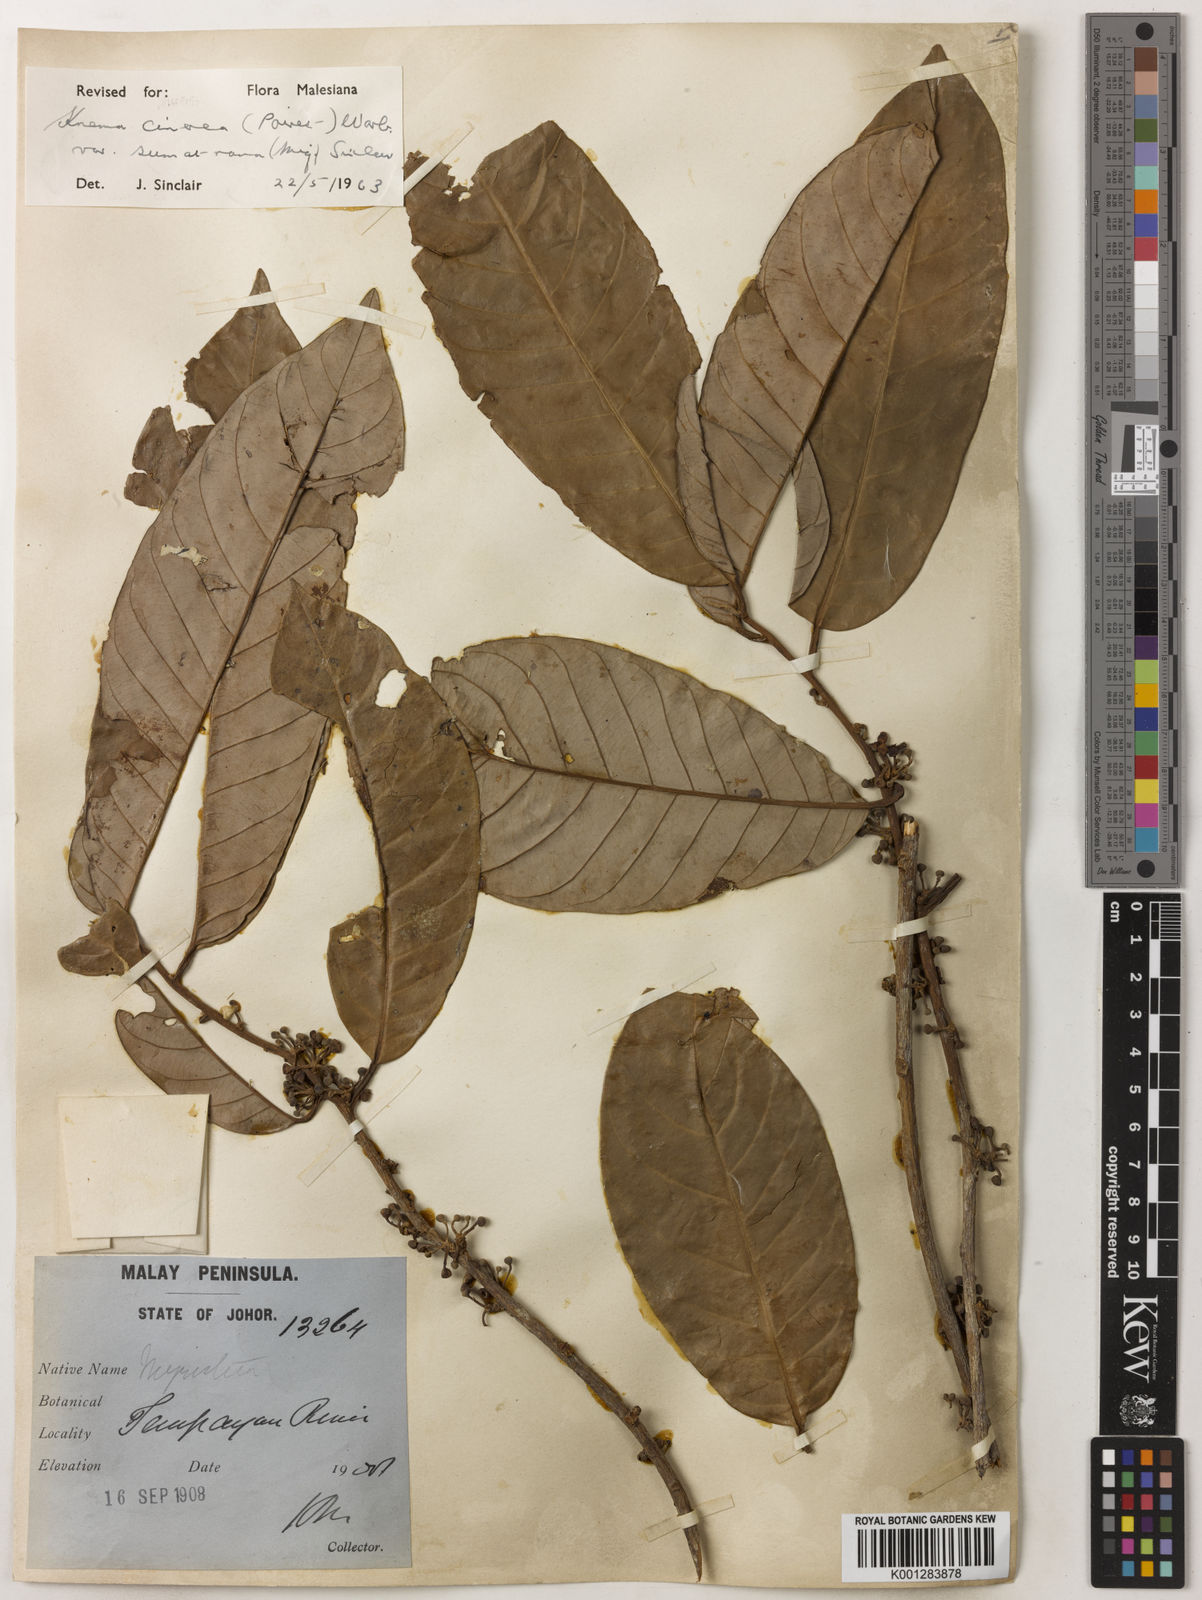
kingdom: Plantae
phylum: Tracheophyta
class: Magnoliopsida
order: Magnoliales
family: Myristicaceae
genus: Knema
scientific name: Knema
